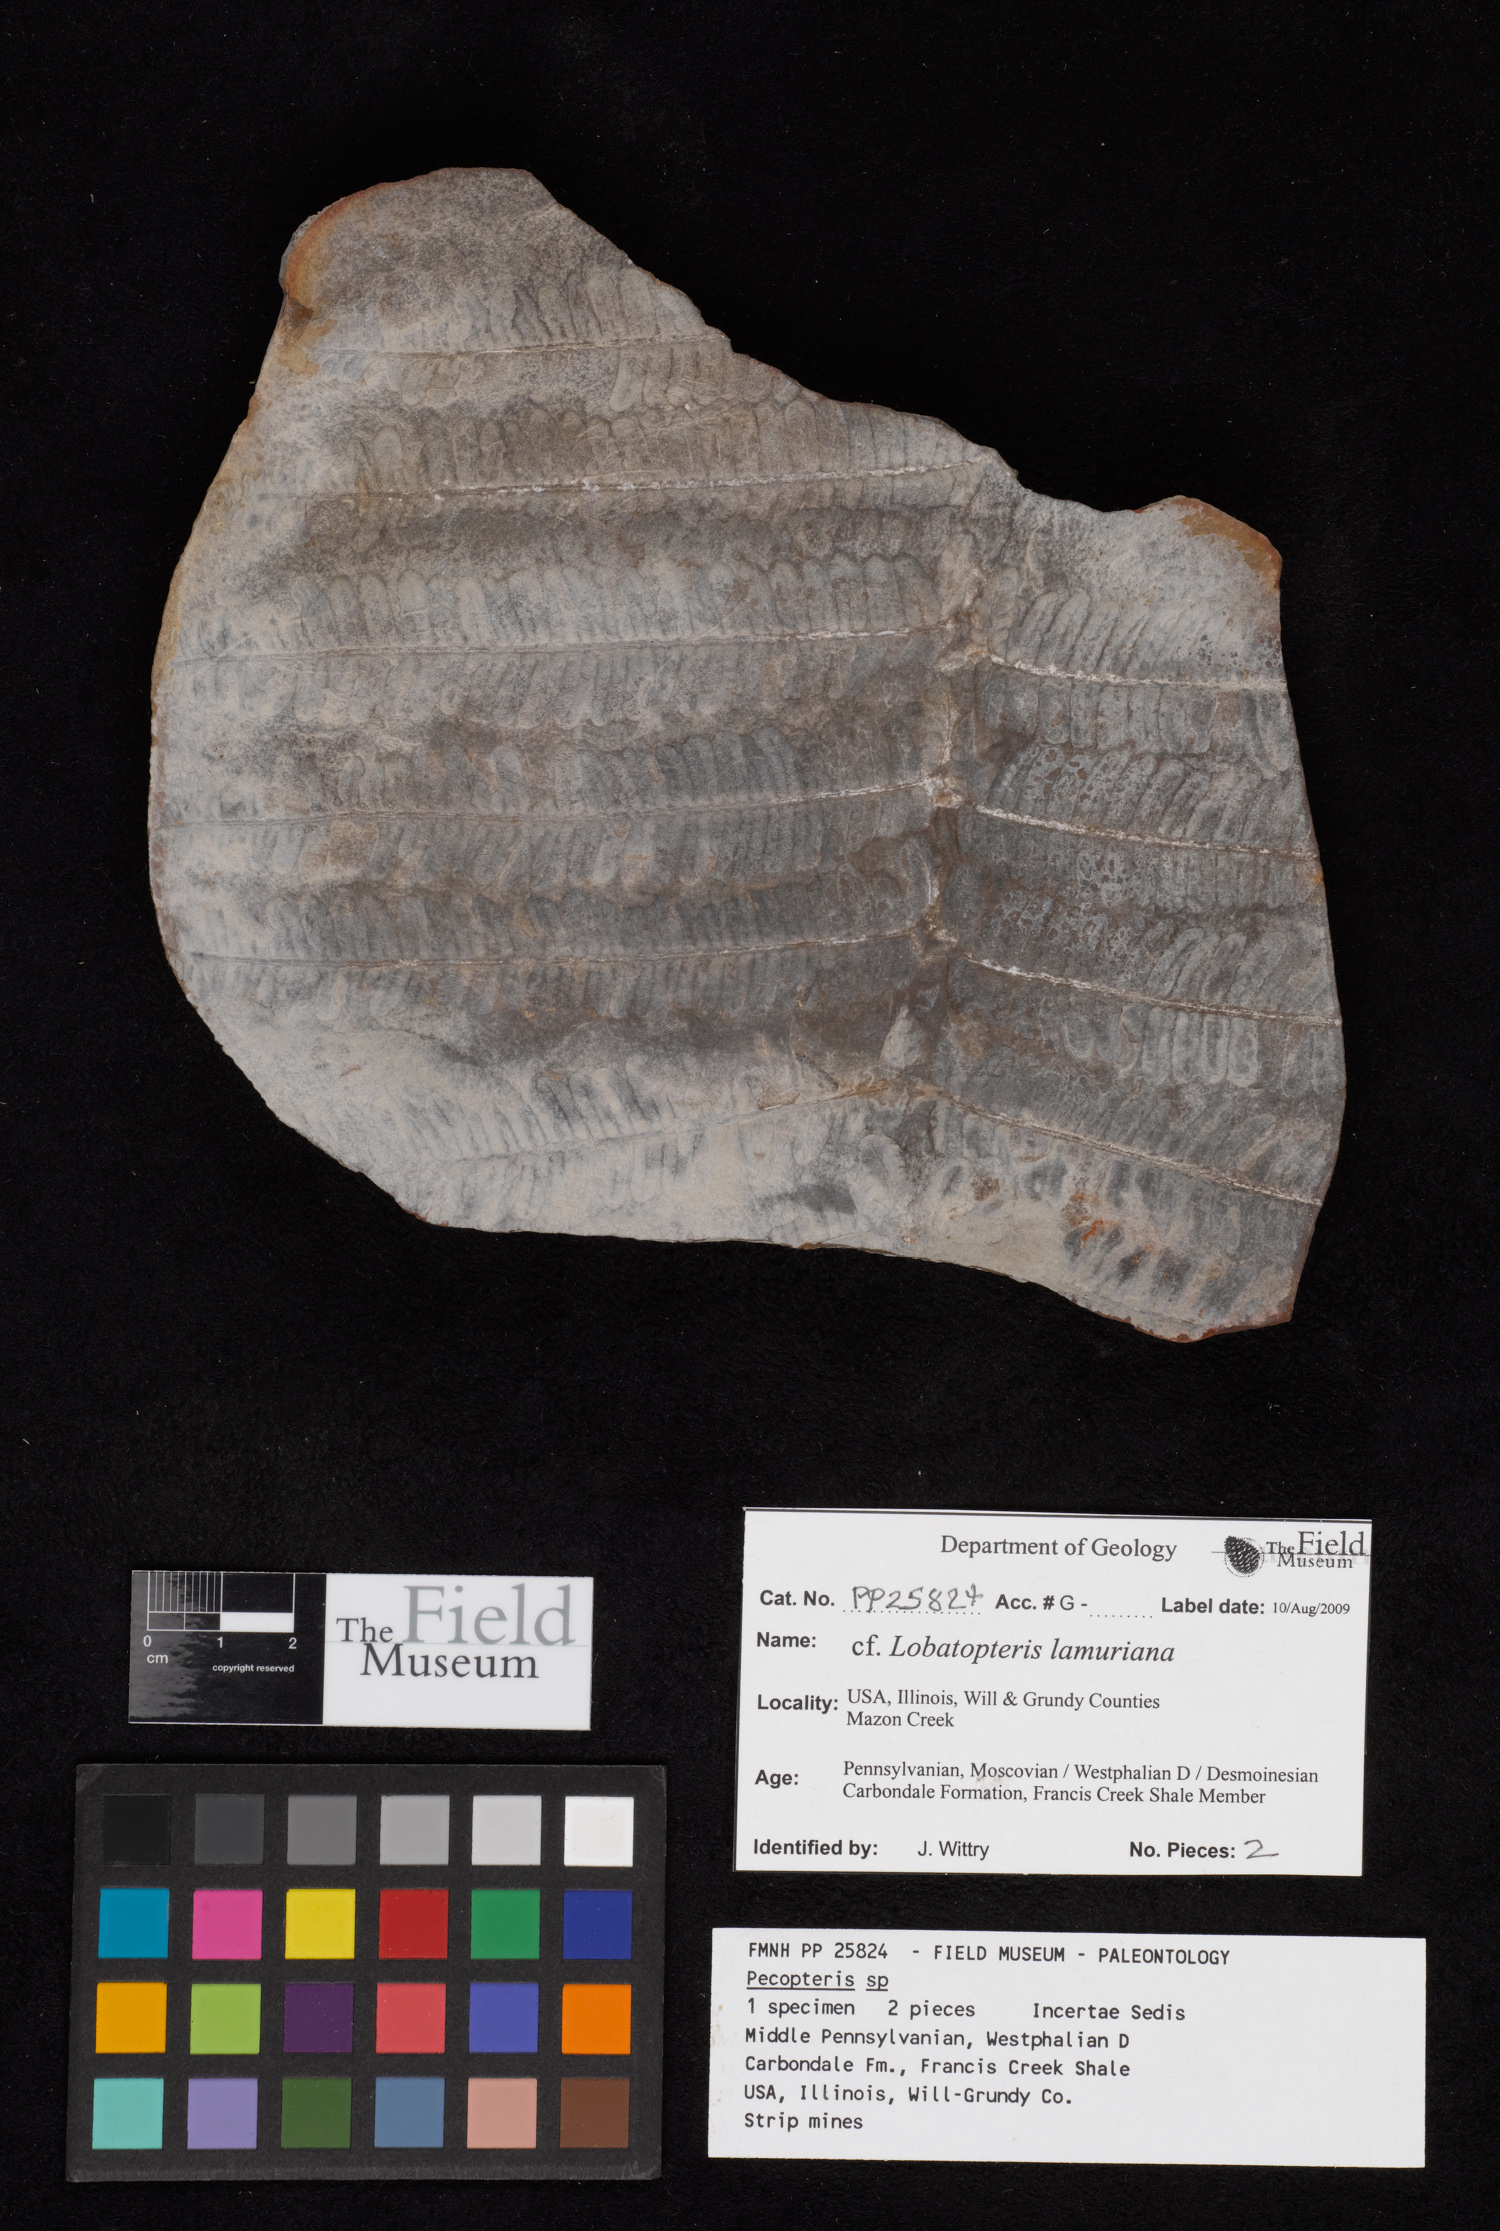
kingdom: Plantae
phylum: Tracheophyta
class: Polypodiopsida
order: Marattiales
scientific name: Marattiales
